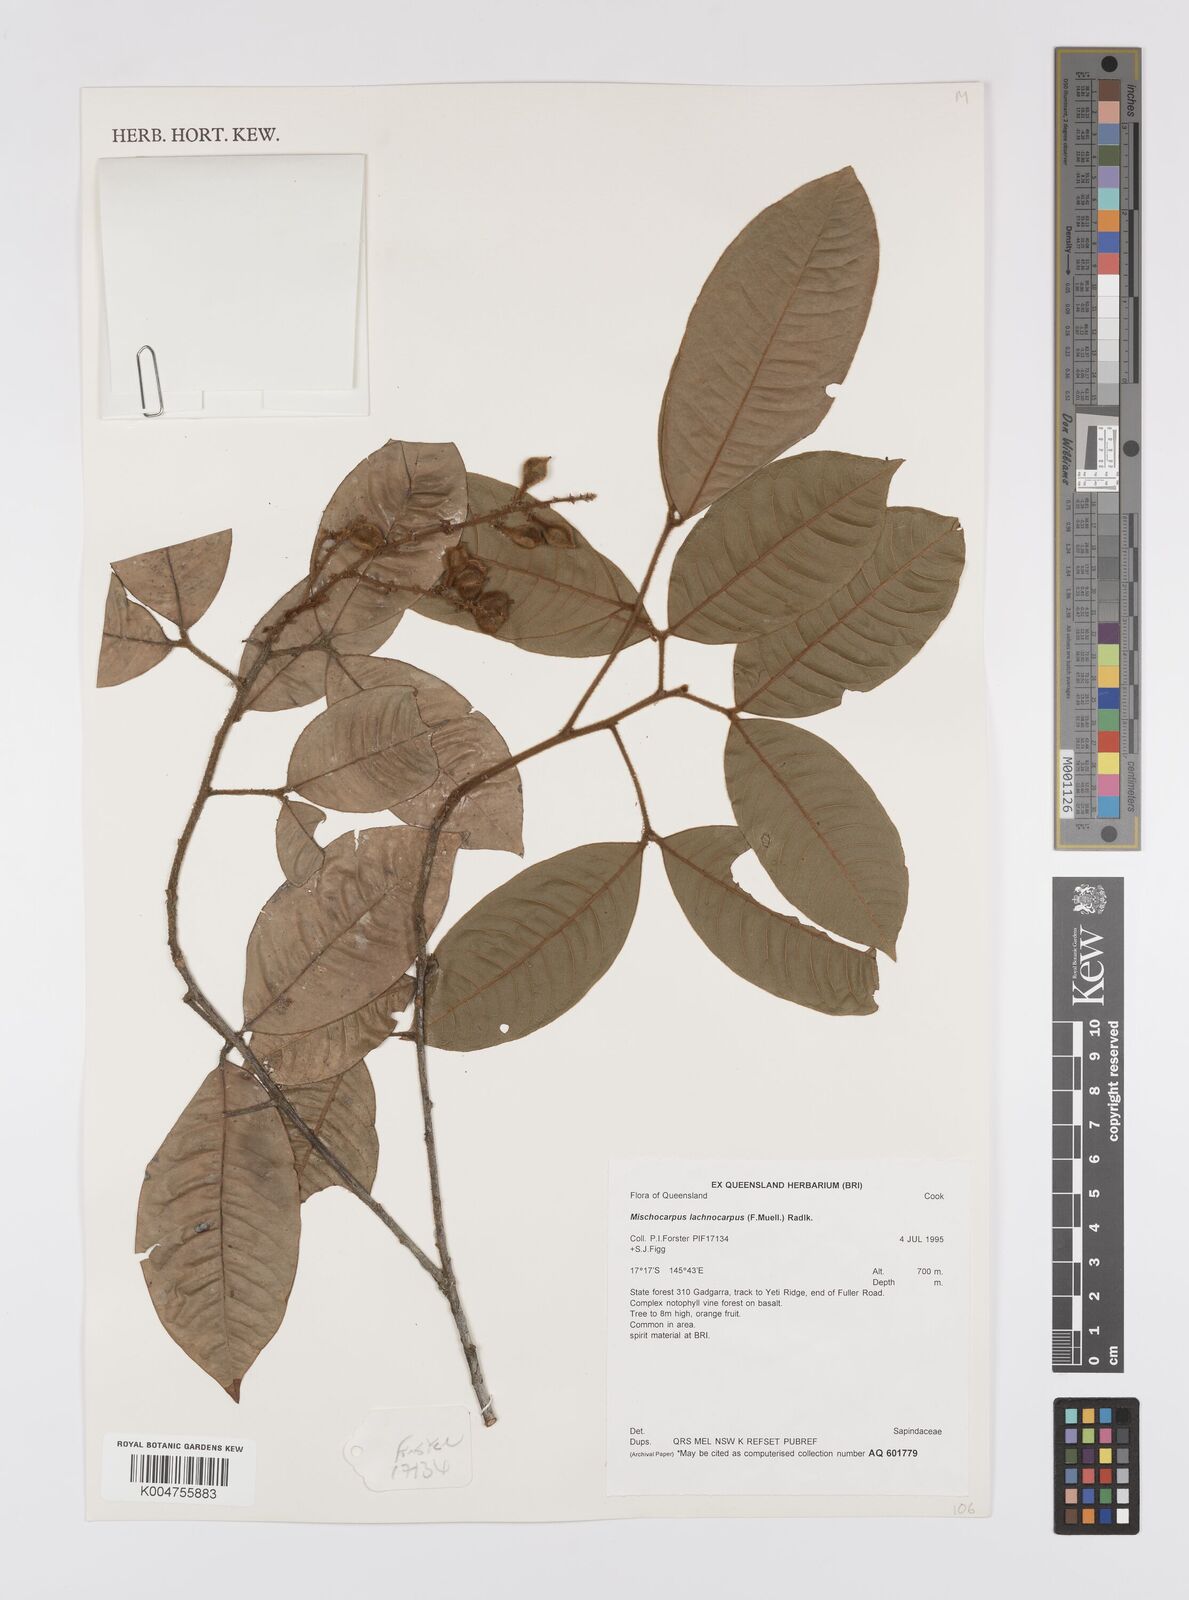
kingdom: Plantae
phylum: Tracheophyta
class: Magnoliopsida
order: Sapindales
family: Sapindaceae
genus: Mischocarpus
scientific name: Mischocarpus lachnocarpus
